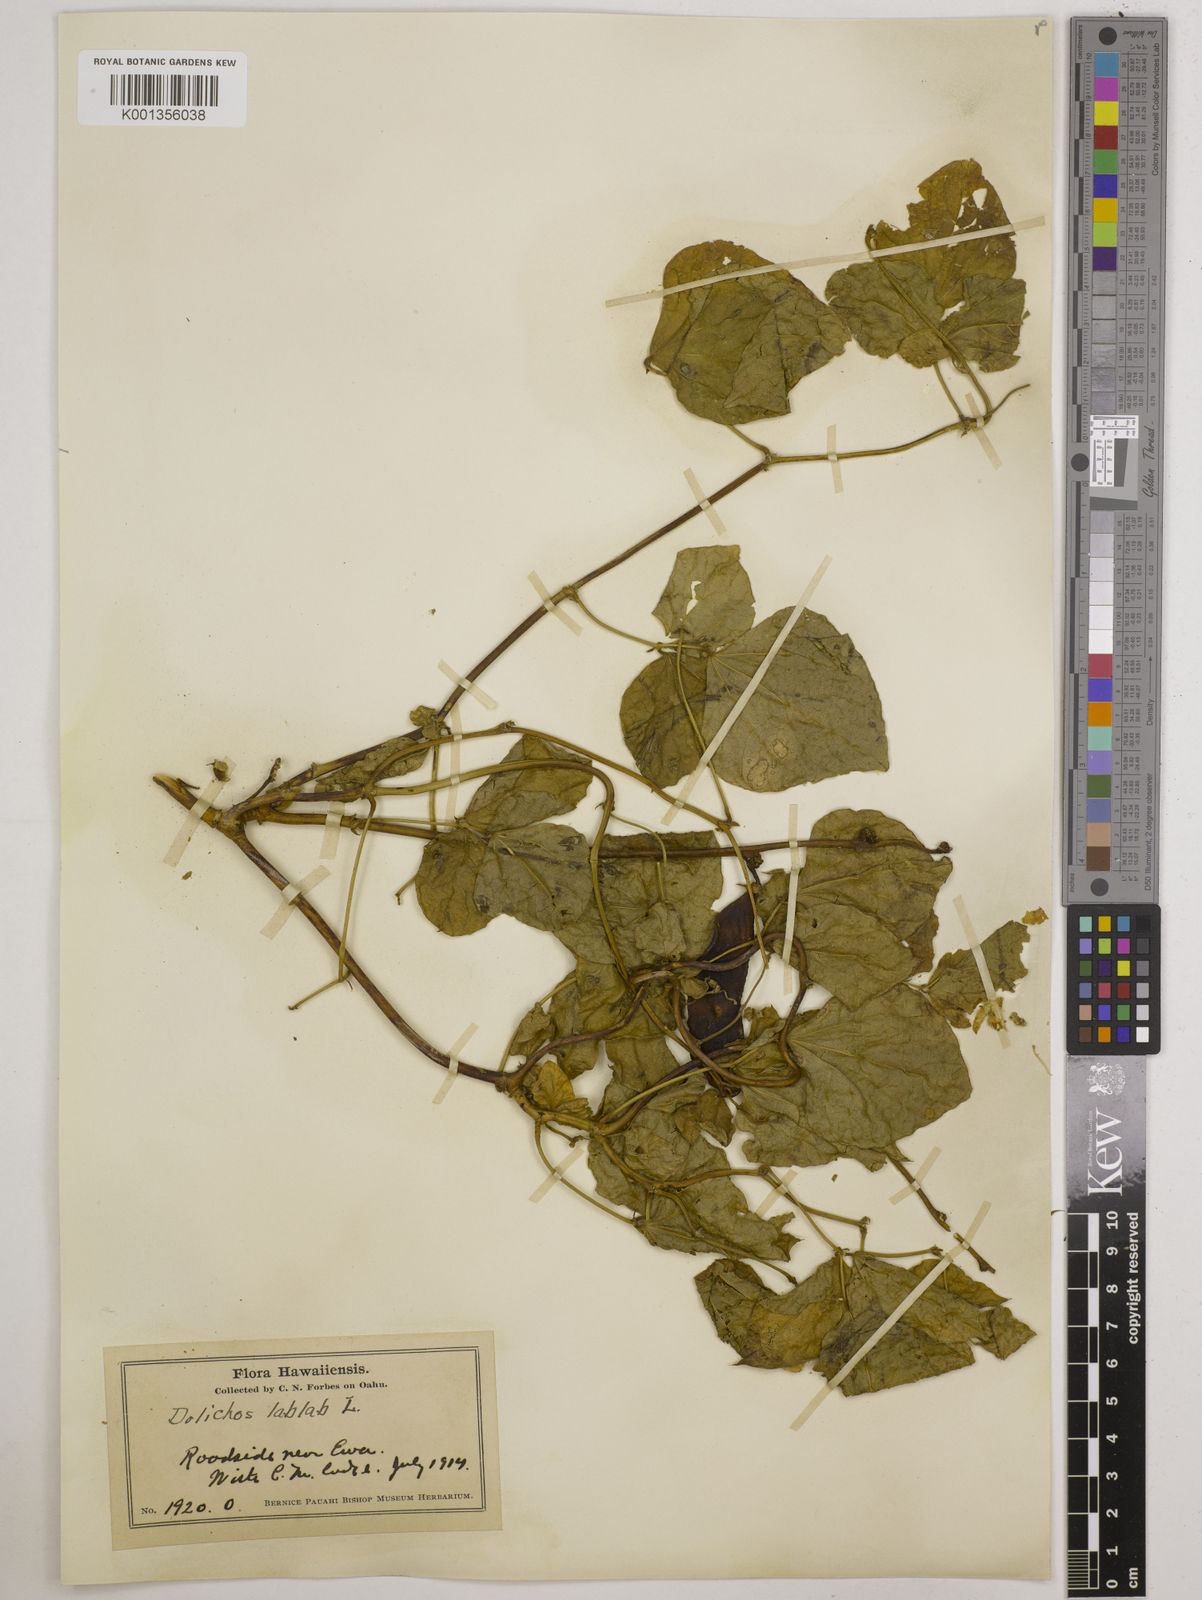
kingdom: Plantae
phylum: Tracheophyta
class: Magnoliopsida
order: Fabales
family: Fabaceae
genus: Lablab
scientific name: Lablab purpureus
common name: Lablab-bean
